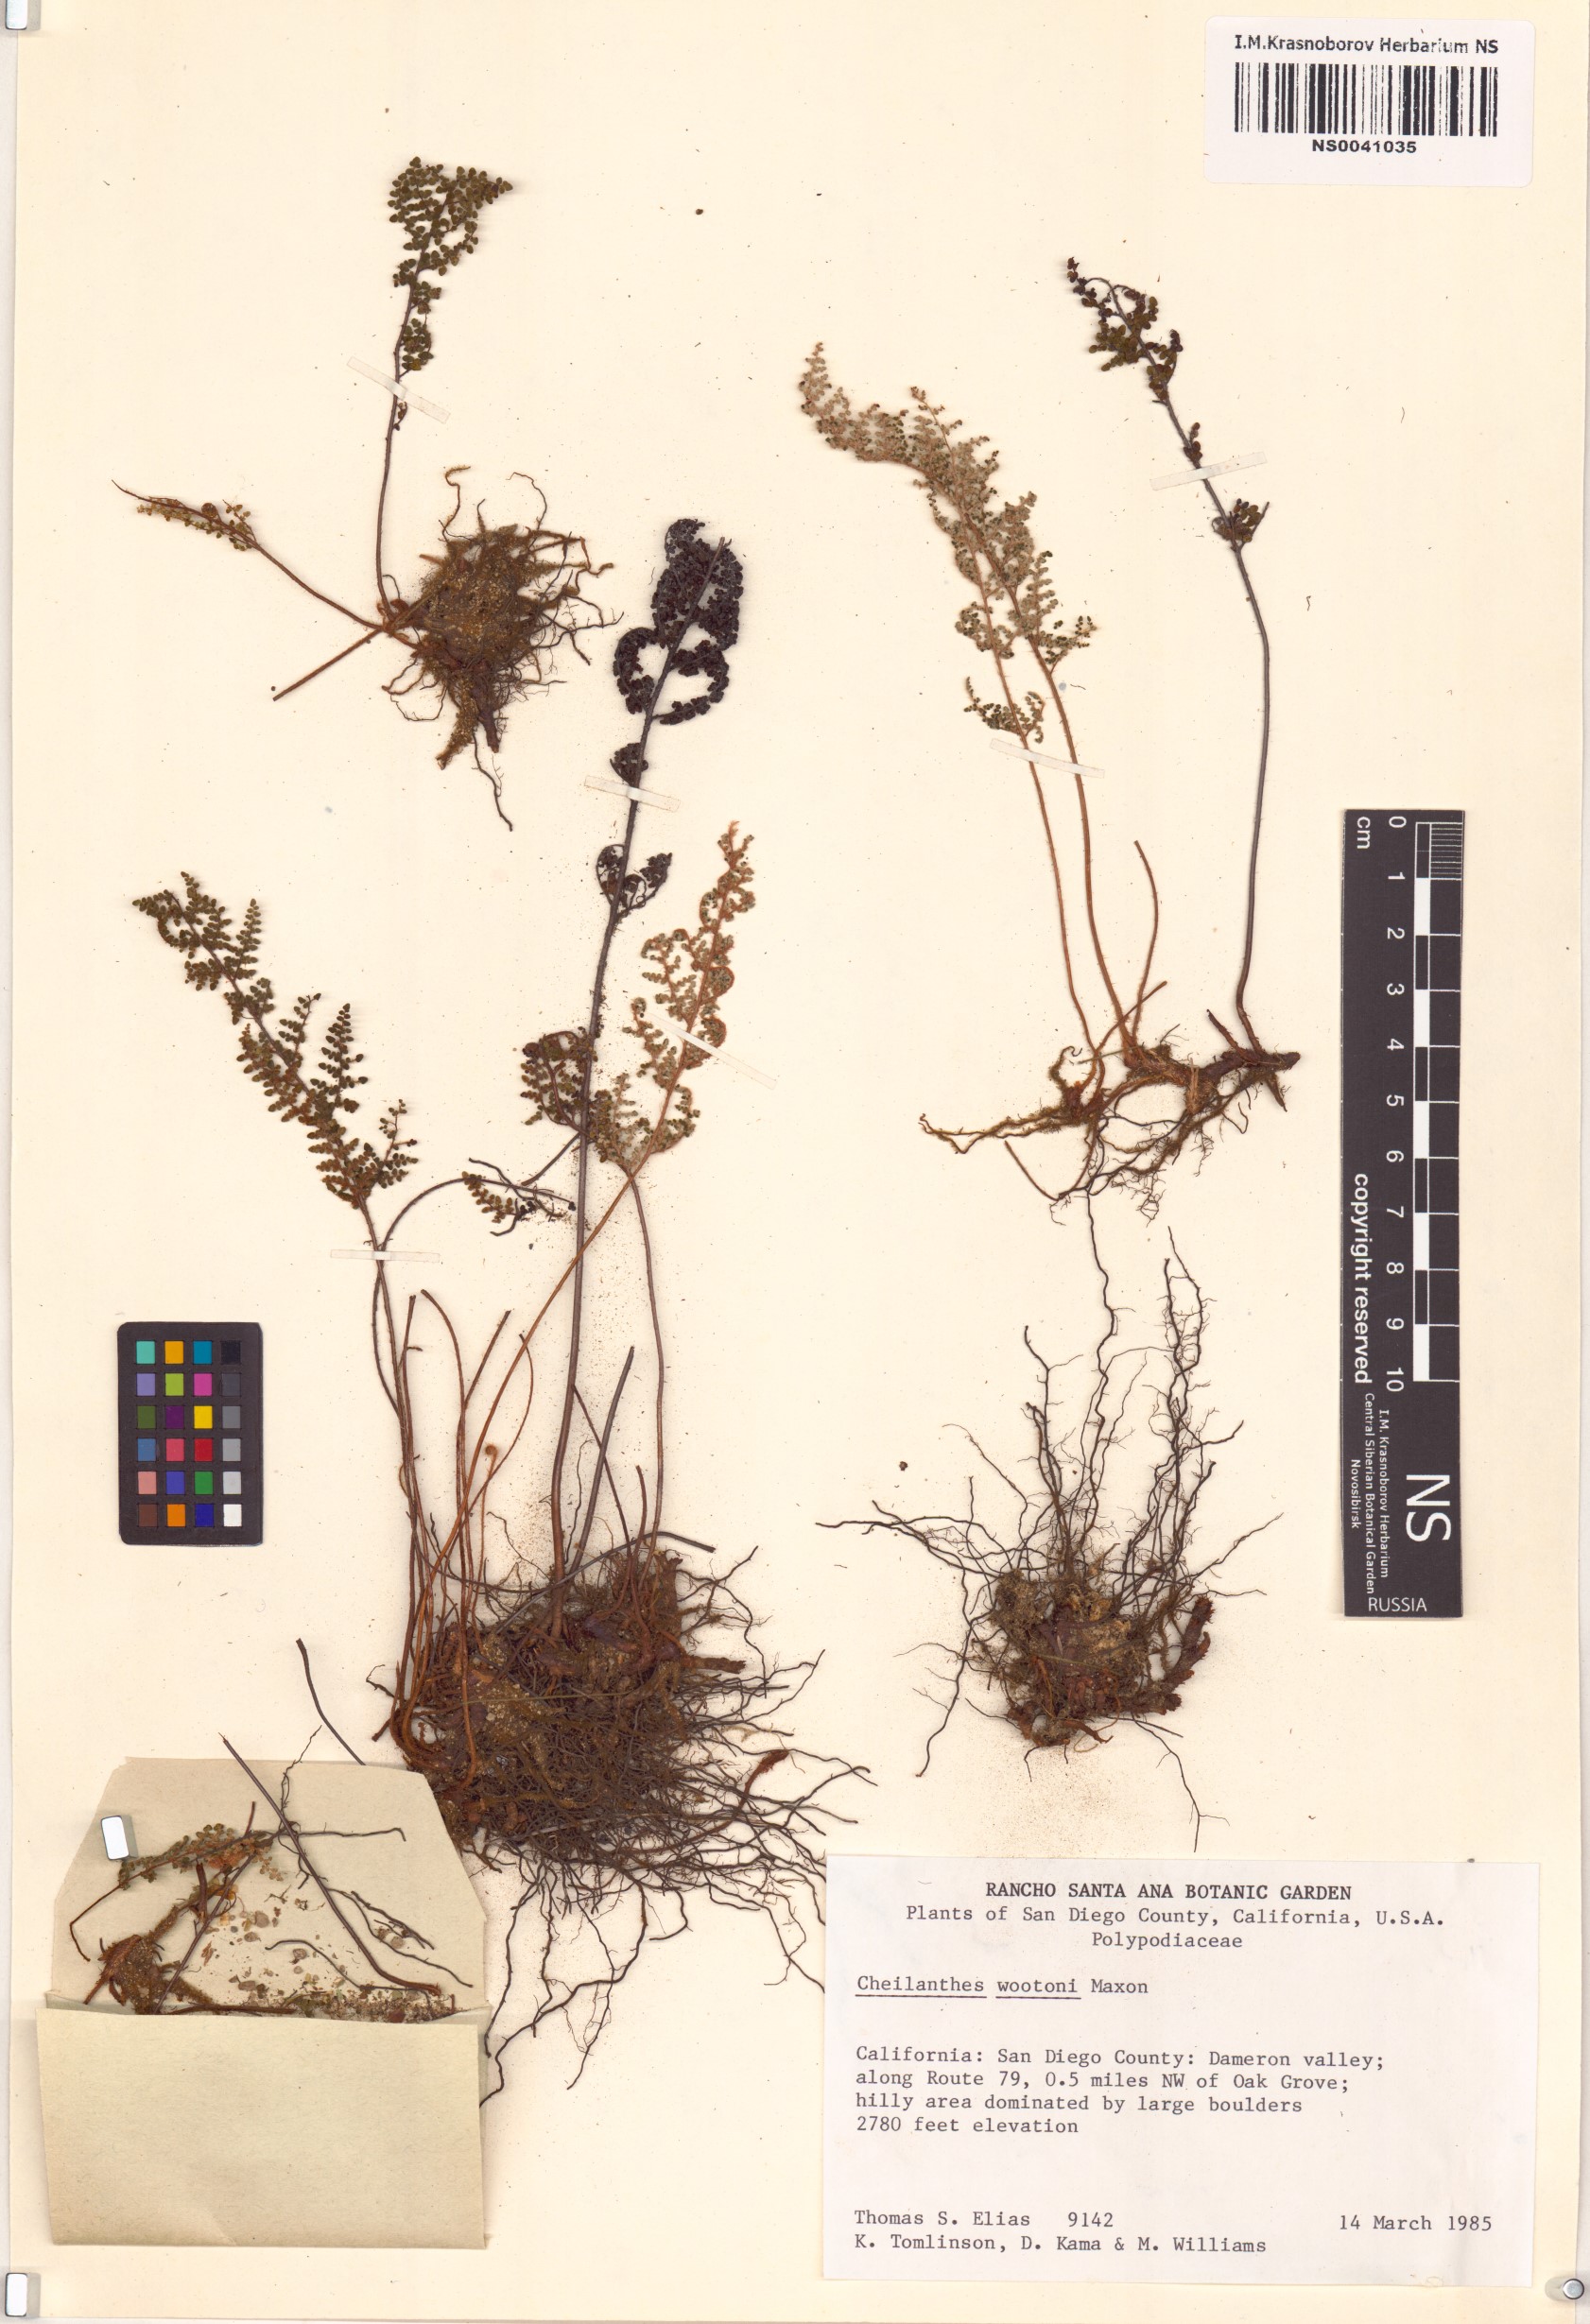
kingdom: Plantae
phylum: Tracheophyta
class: Polypodiopsida
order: Polypodiales
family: Pteridaceae
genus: Myriopteris
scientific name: Myriopteris wootonii
